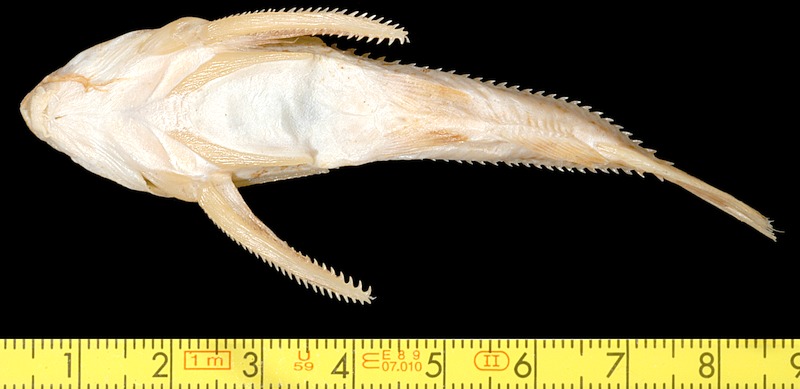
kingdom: Animalia
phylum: Chordata
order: Siluriformes
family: Doradidae
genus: Ossancora
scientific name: Ossancora punctata
